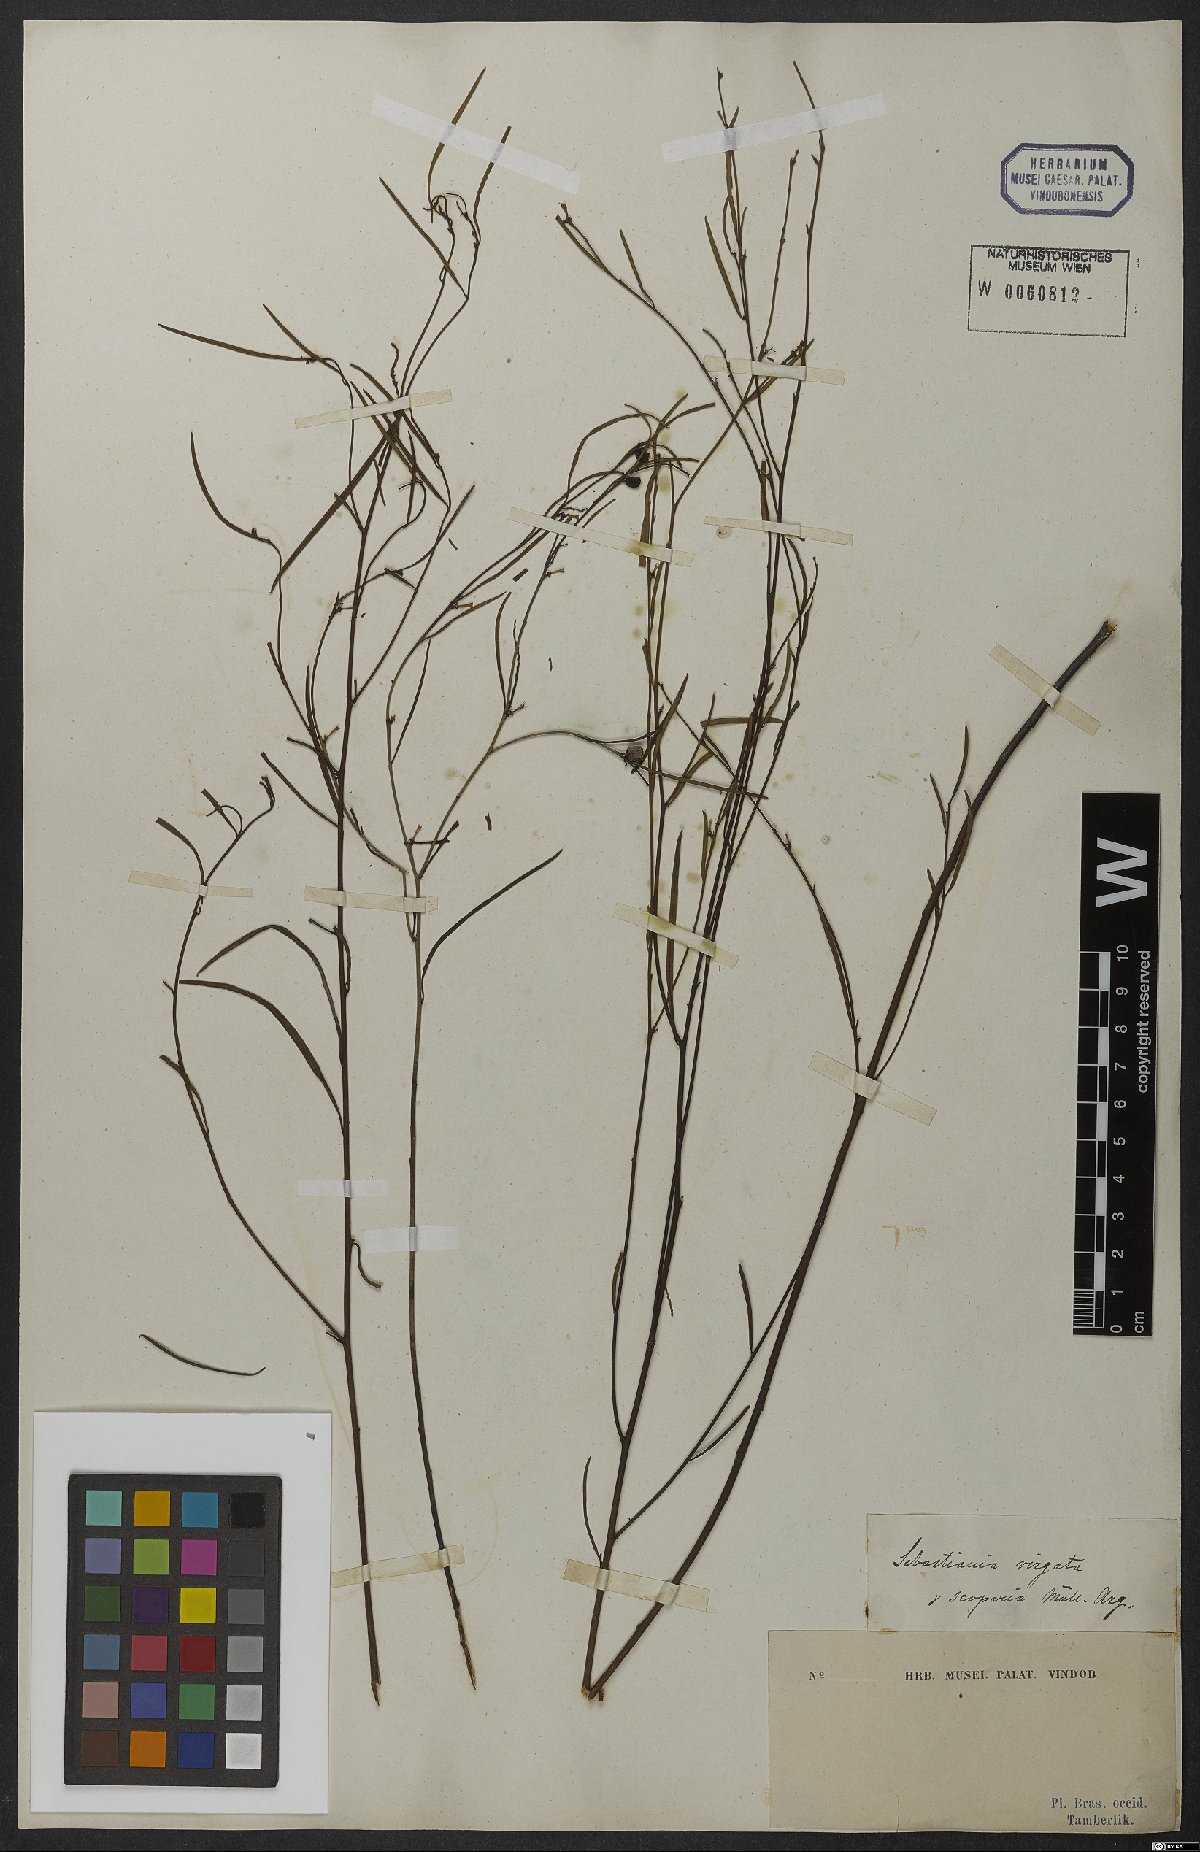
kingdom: Plantae
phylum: Tracheophyta
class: Magnoliopsida
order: Malpighiales
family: Euphorbiaceae
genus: Microstachys
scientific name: Microstachys bidentata
